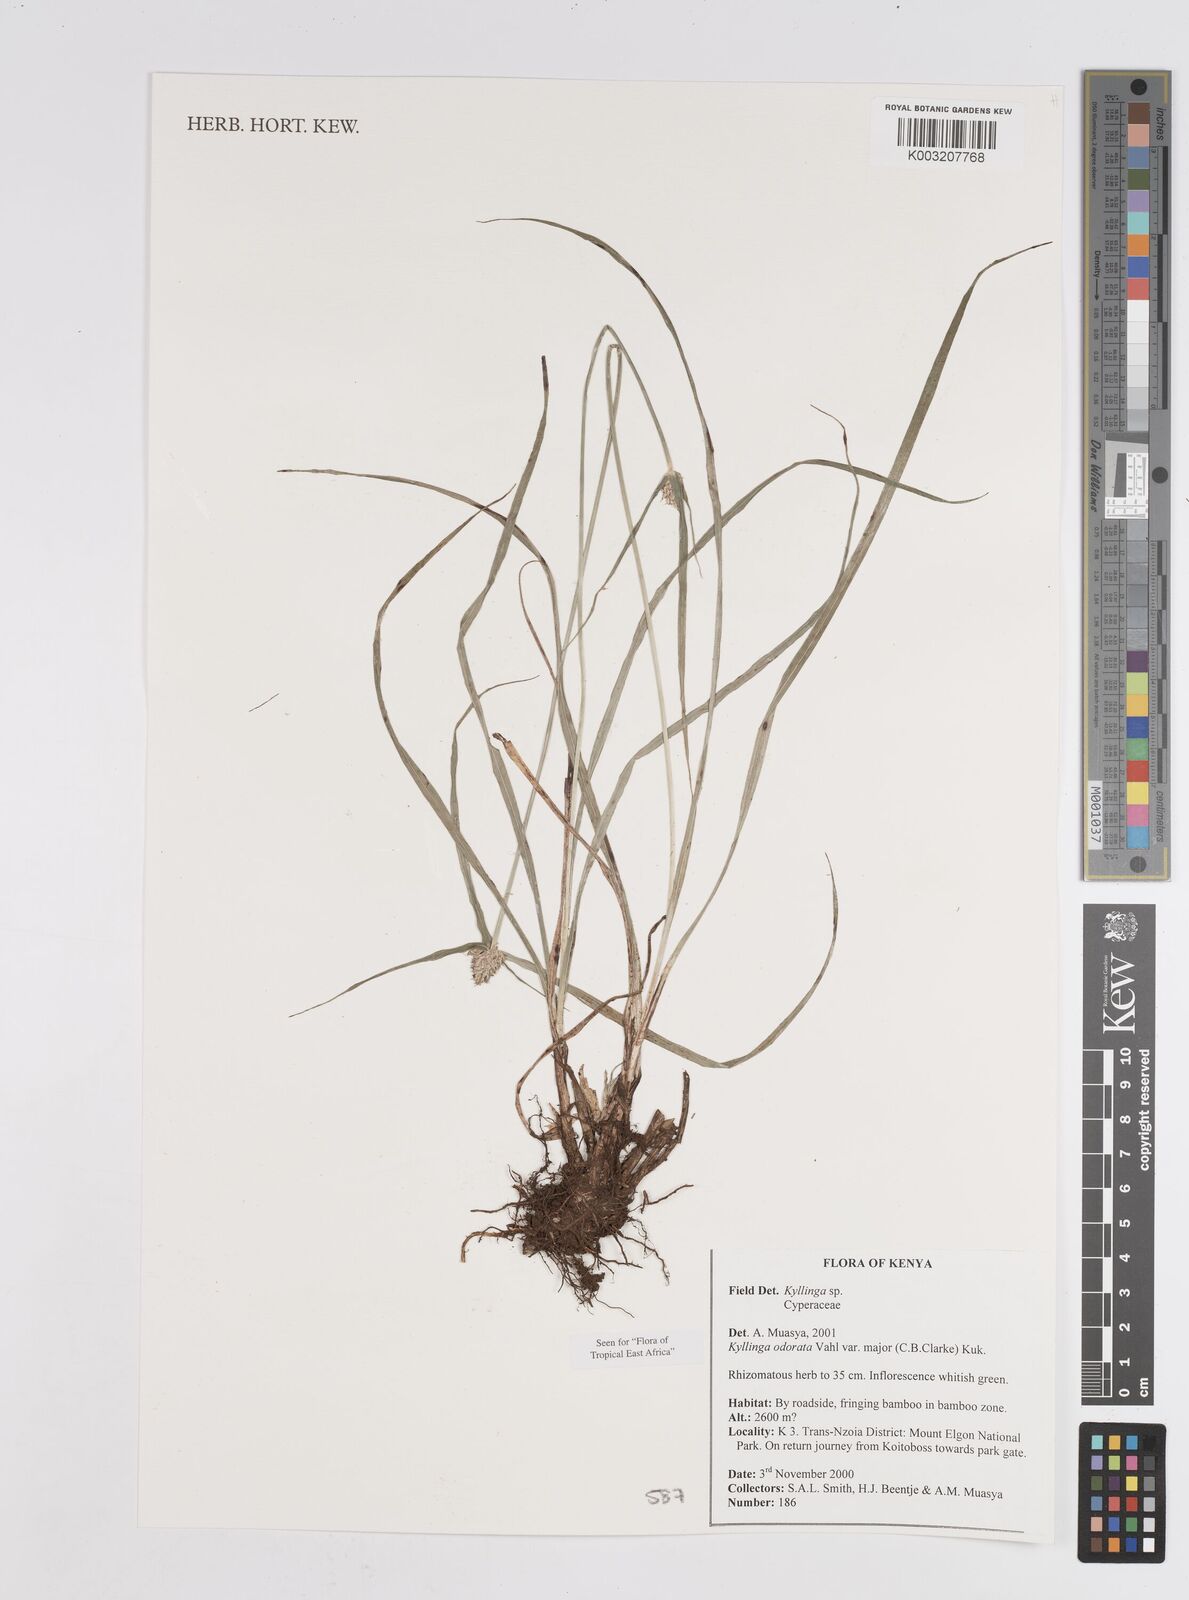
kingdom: Plantae
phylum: Tracheophyta
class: Liliopsida
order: Poales
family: Cyperaceae
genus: Cyperus
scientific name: Cyperus
